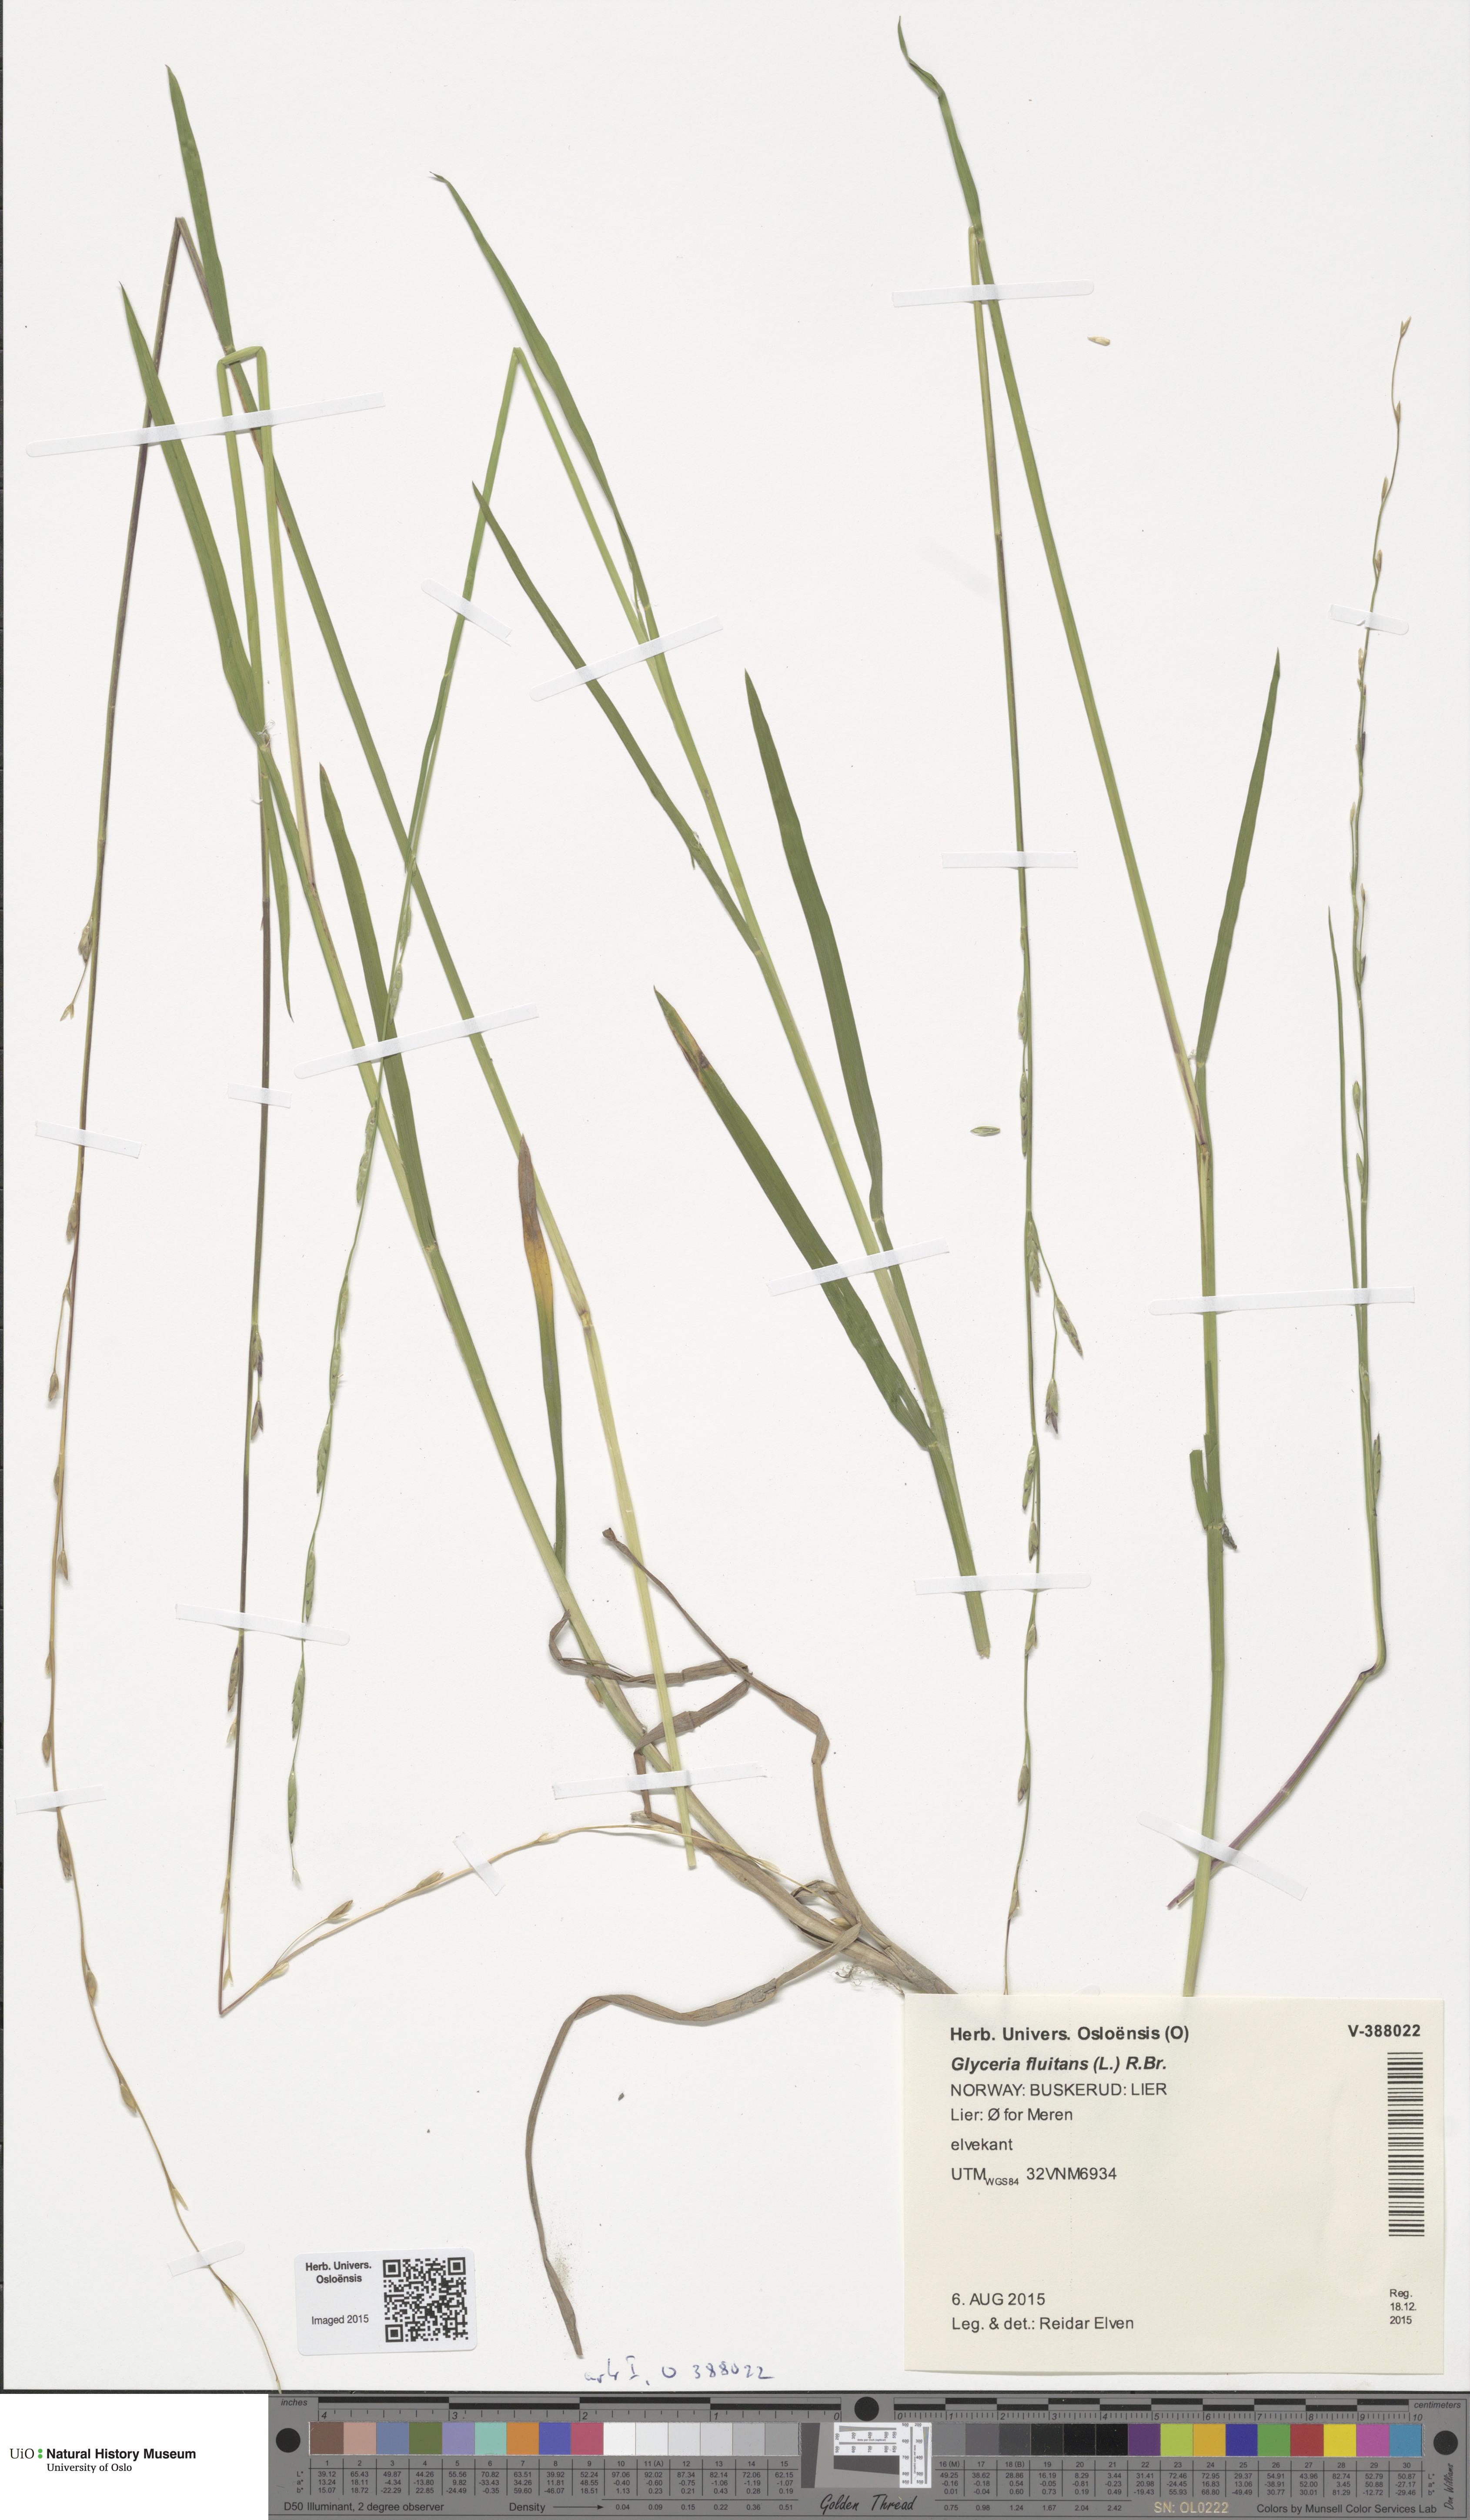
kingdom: Plantae
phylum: Tracheophyta
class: Liliopsida
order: Poales
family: Poaceae
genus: Glyceria
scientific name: Glyceria fluitans
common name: Floating sweet-grass
